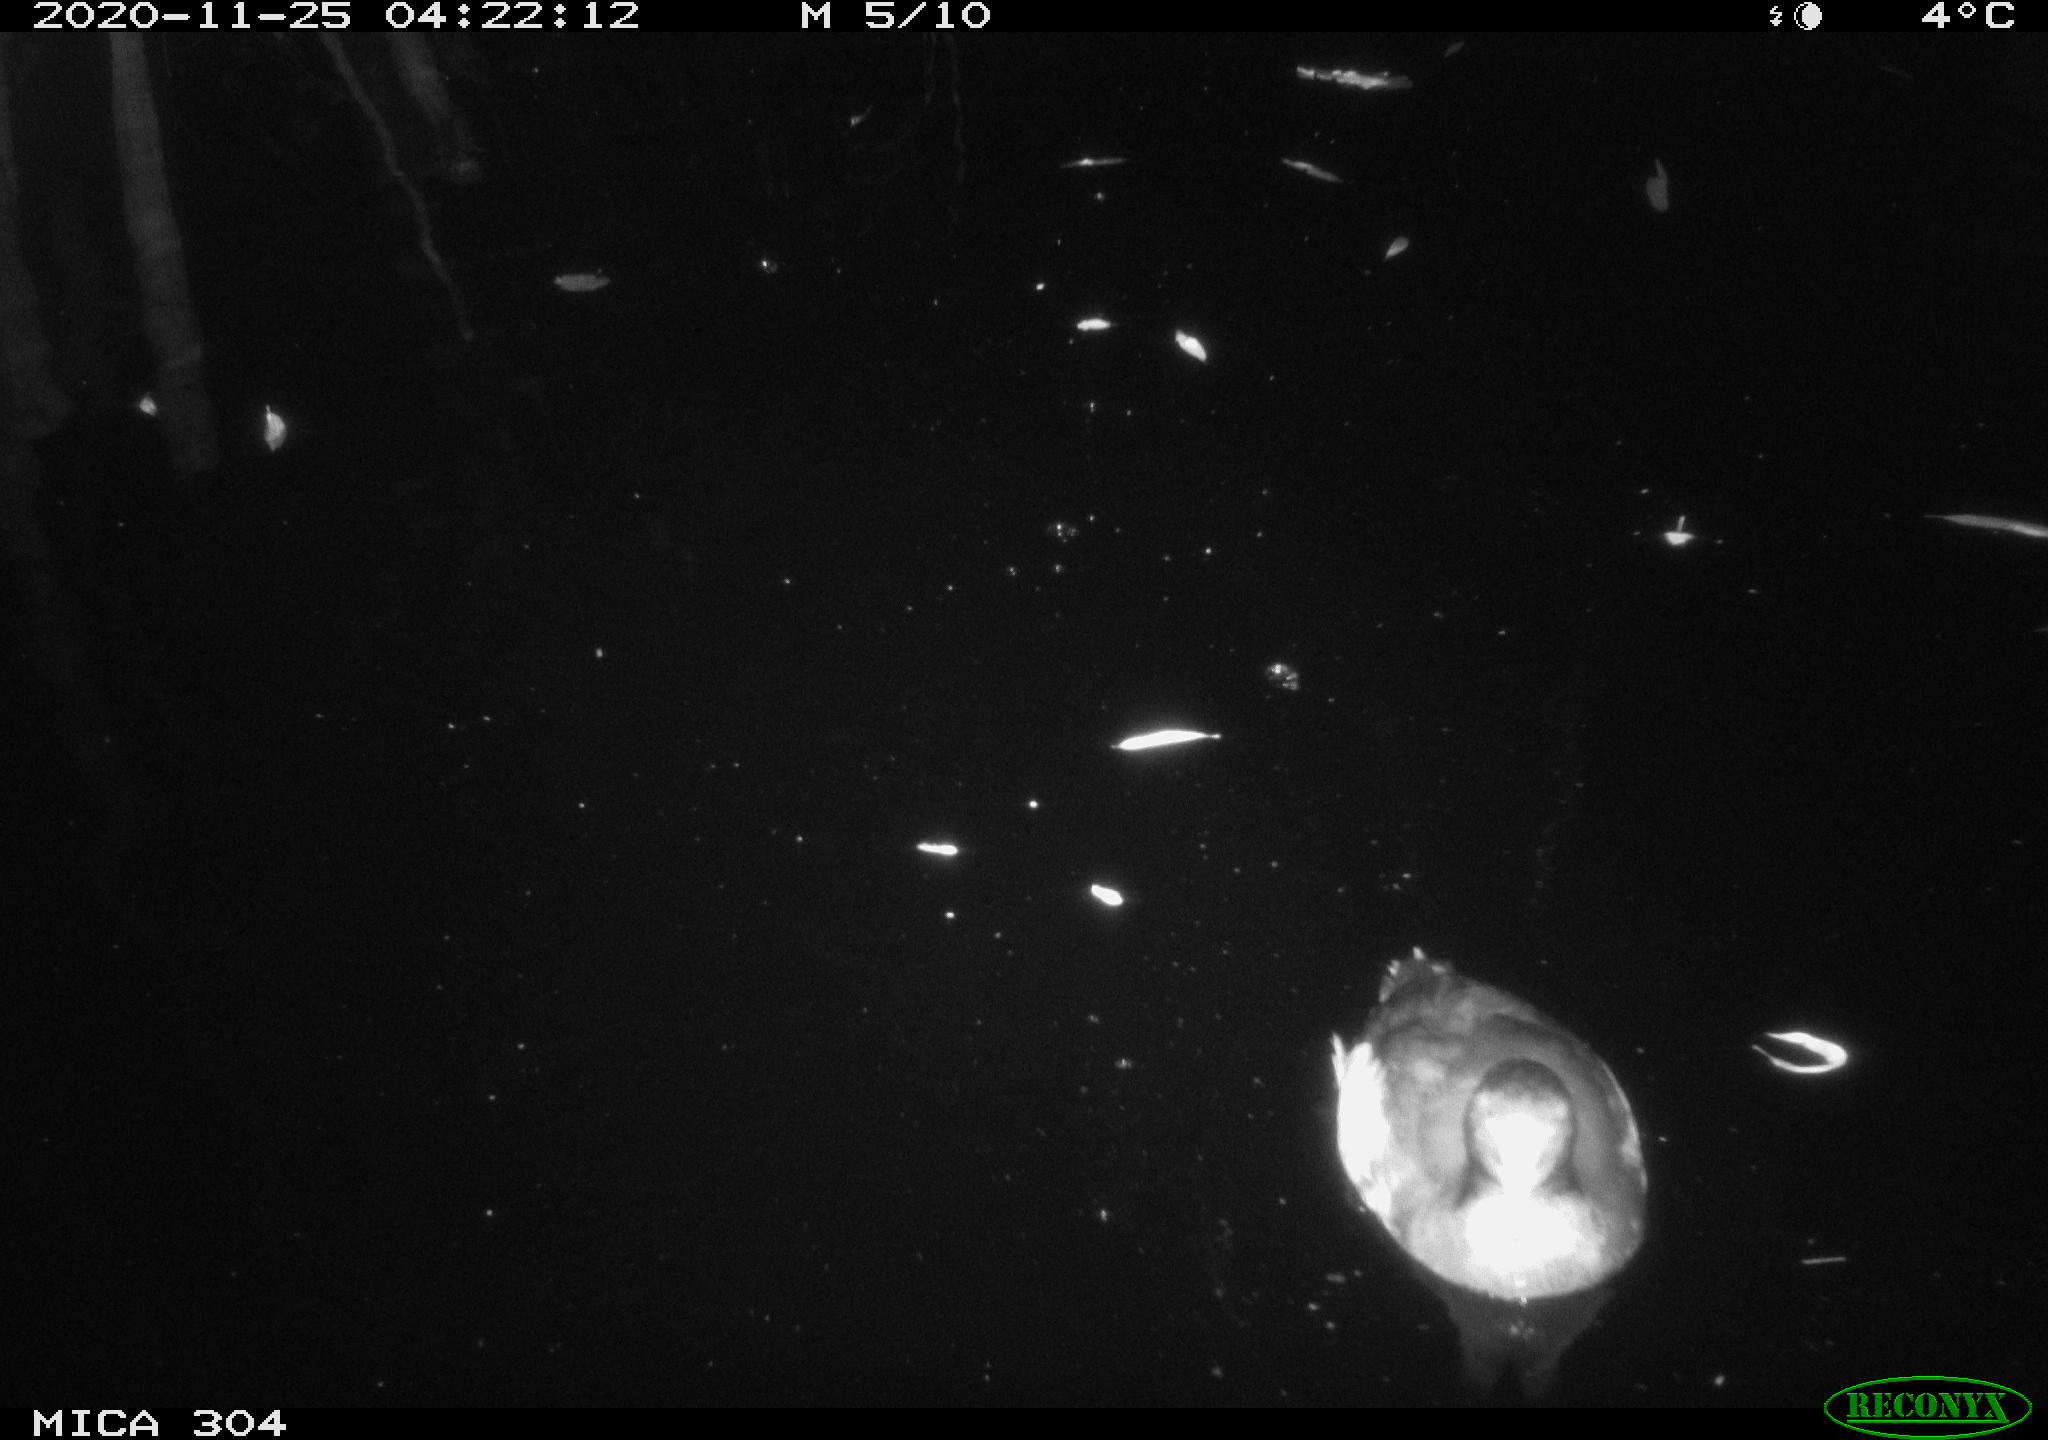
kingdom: Animalia
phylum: Chordata
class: Aves
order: Gruiformes
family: Rallidae
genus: Fulica
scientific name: Fulica atra
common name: Eurasian coot
